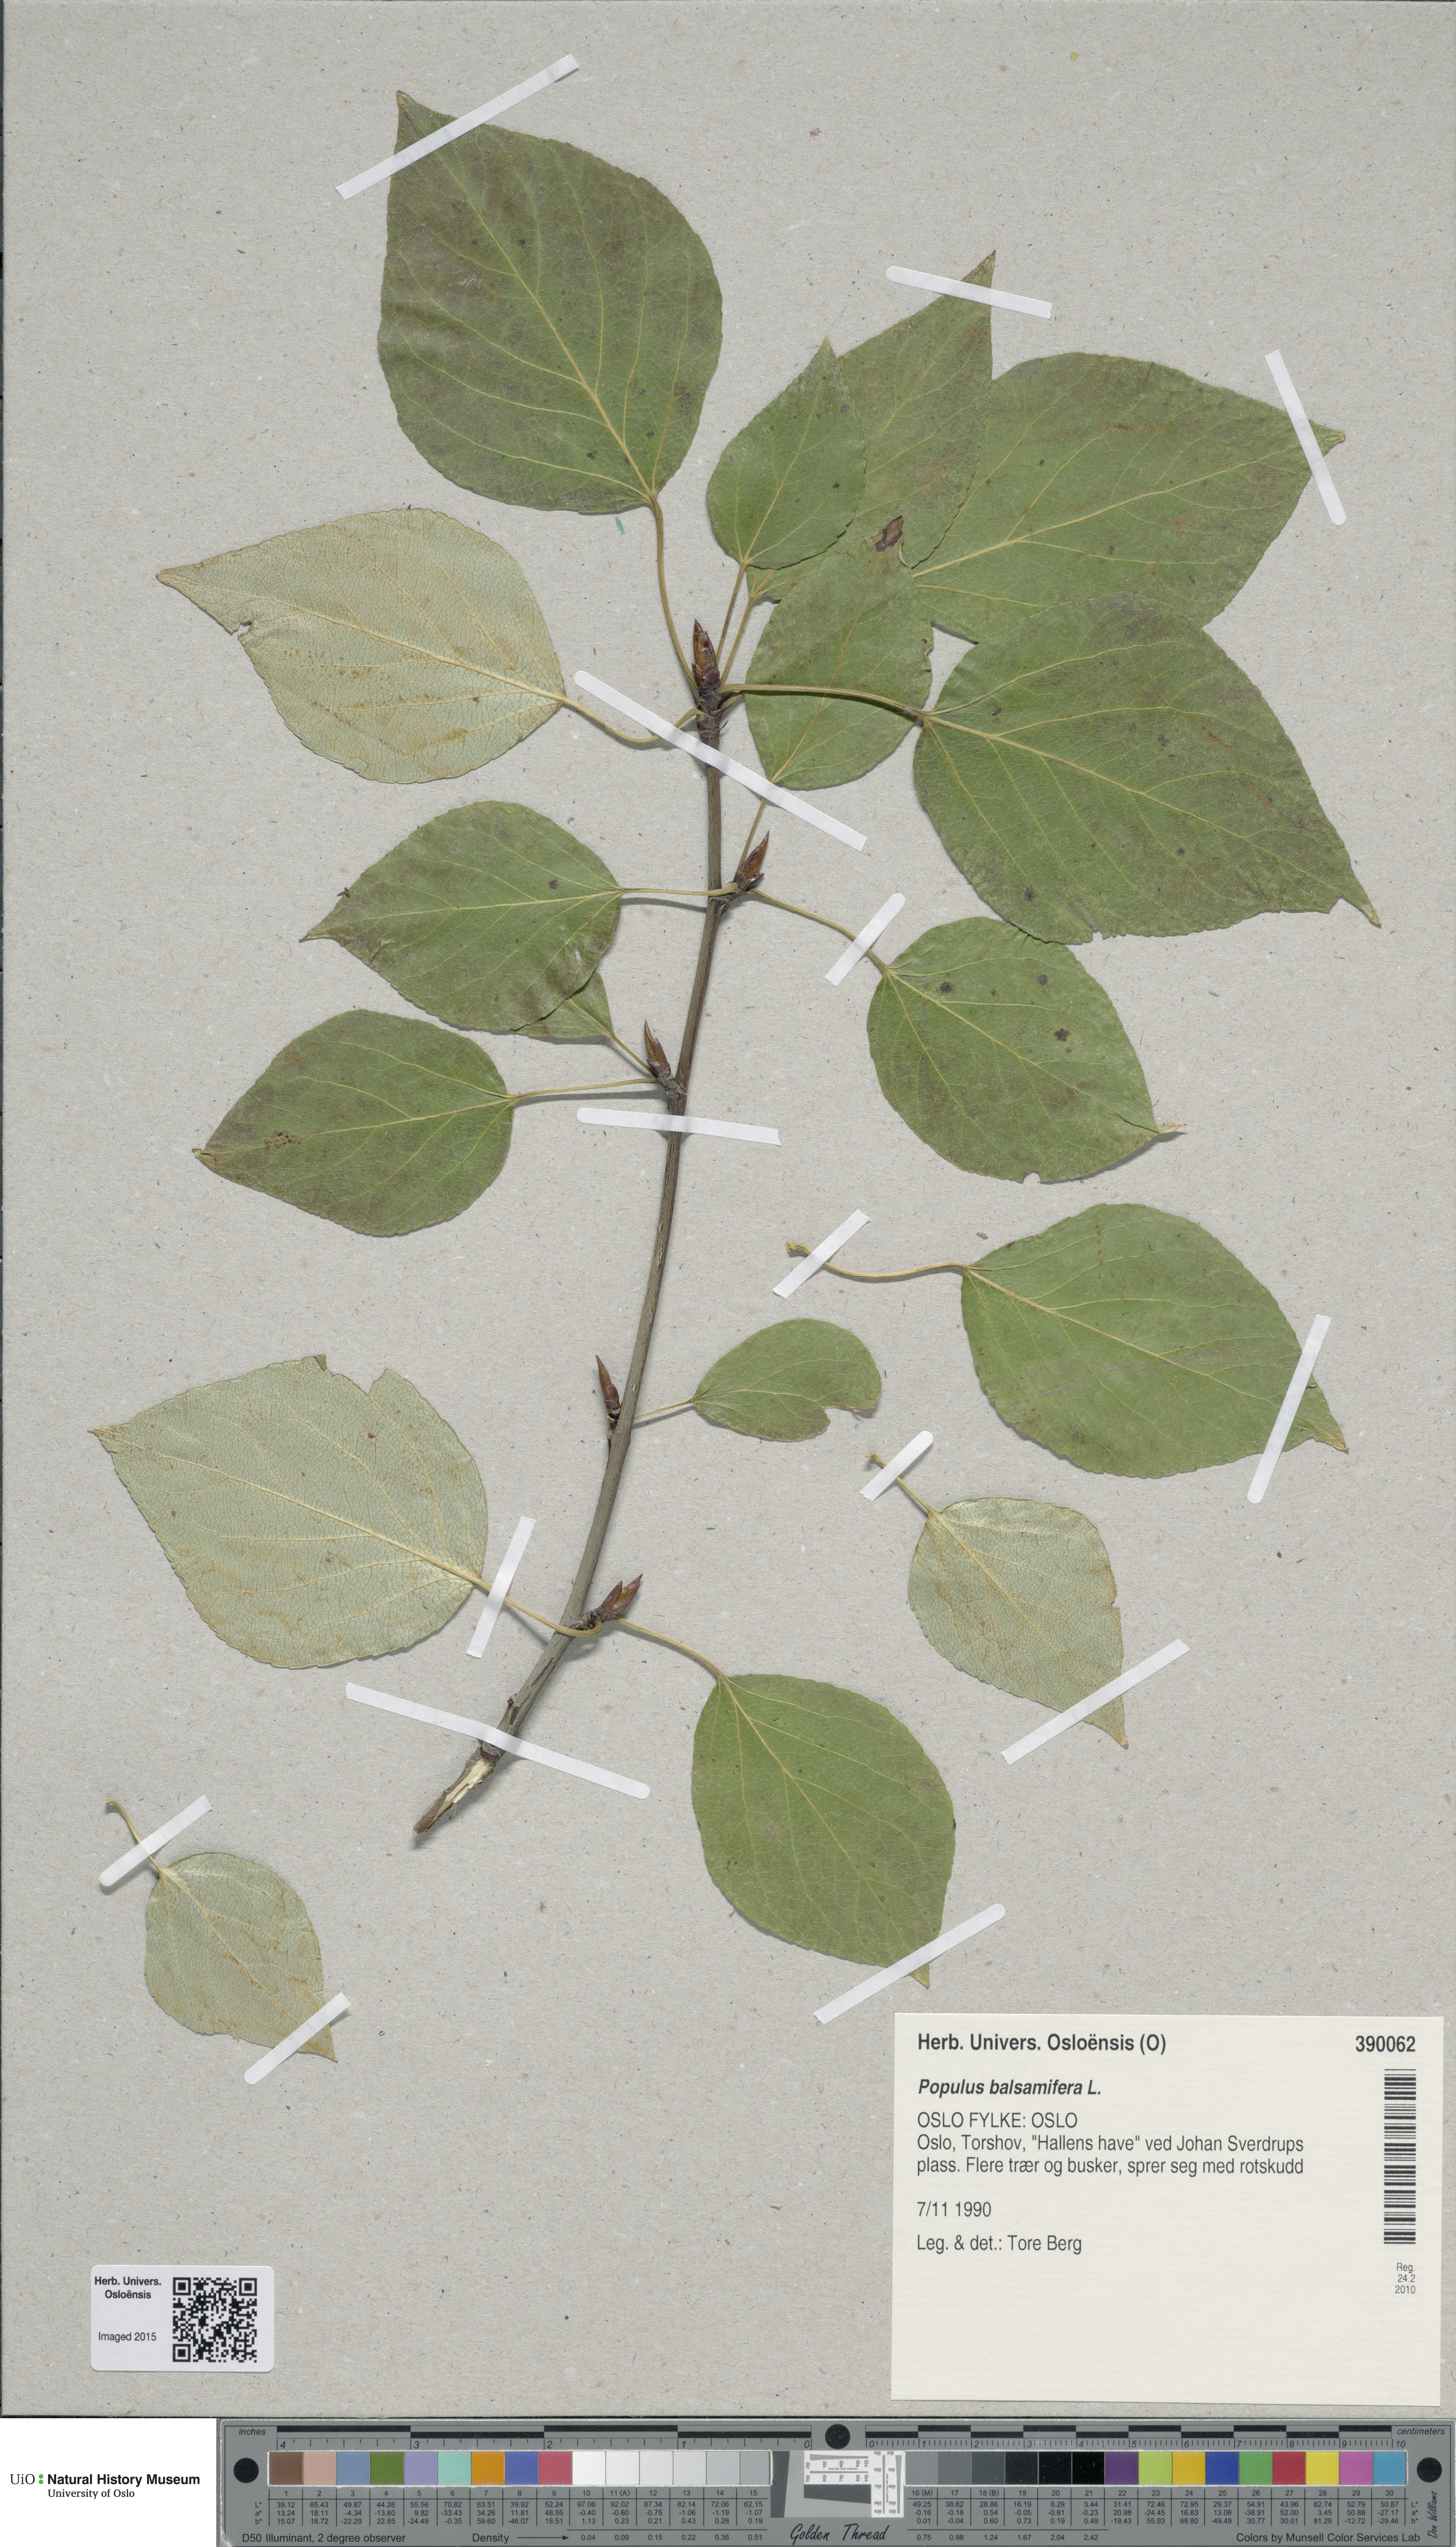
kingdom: Plantae
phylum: Tracheophyta
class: Magnoliopsida
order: Malpighiales
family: Salicaceae
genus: Populus
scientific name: Populus balsamifera
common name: Balsam poplar
